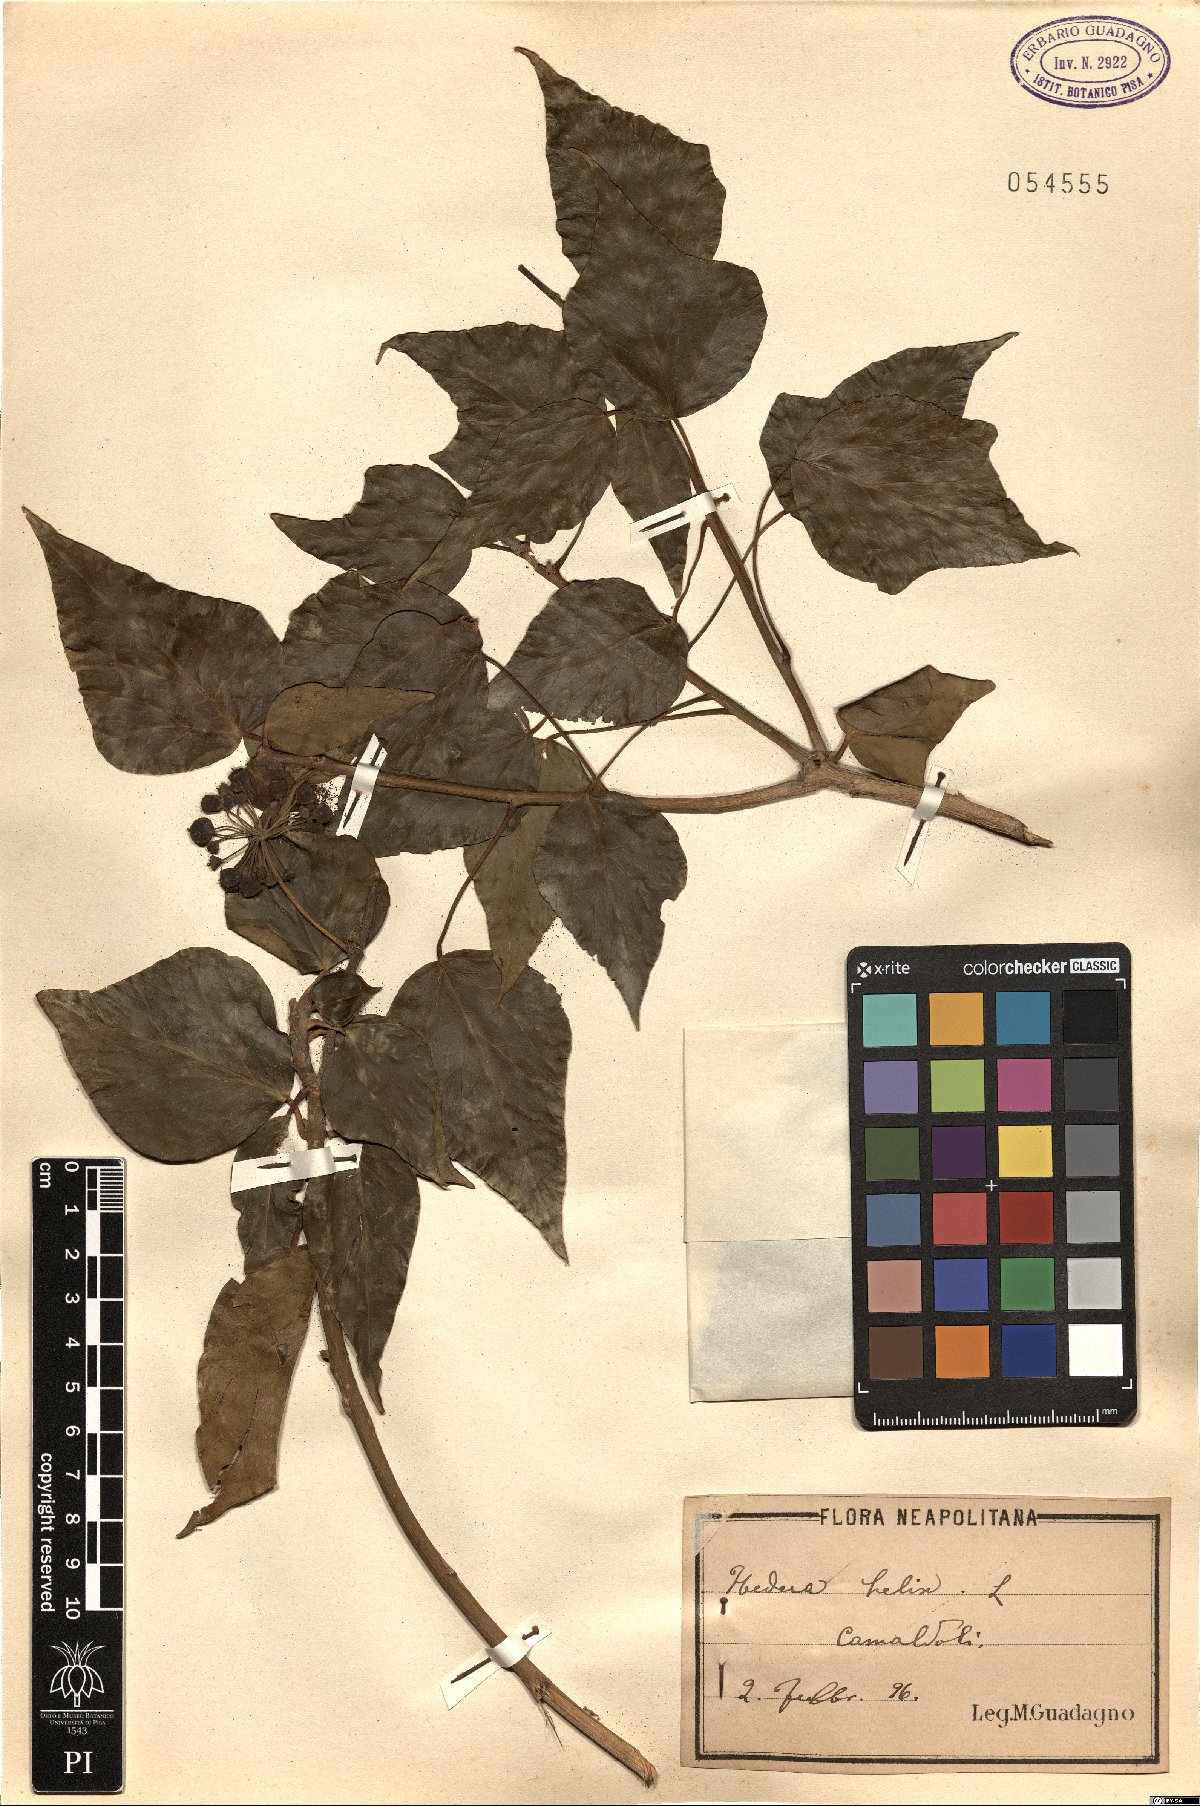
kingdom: Plantae
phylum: Tracheophyta
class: Magnoliopsida
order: Apiales
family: Araliaceae
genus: Hedera
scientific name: Hedera helix
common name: Ivy
